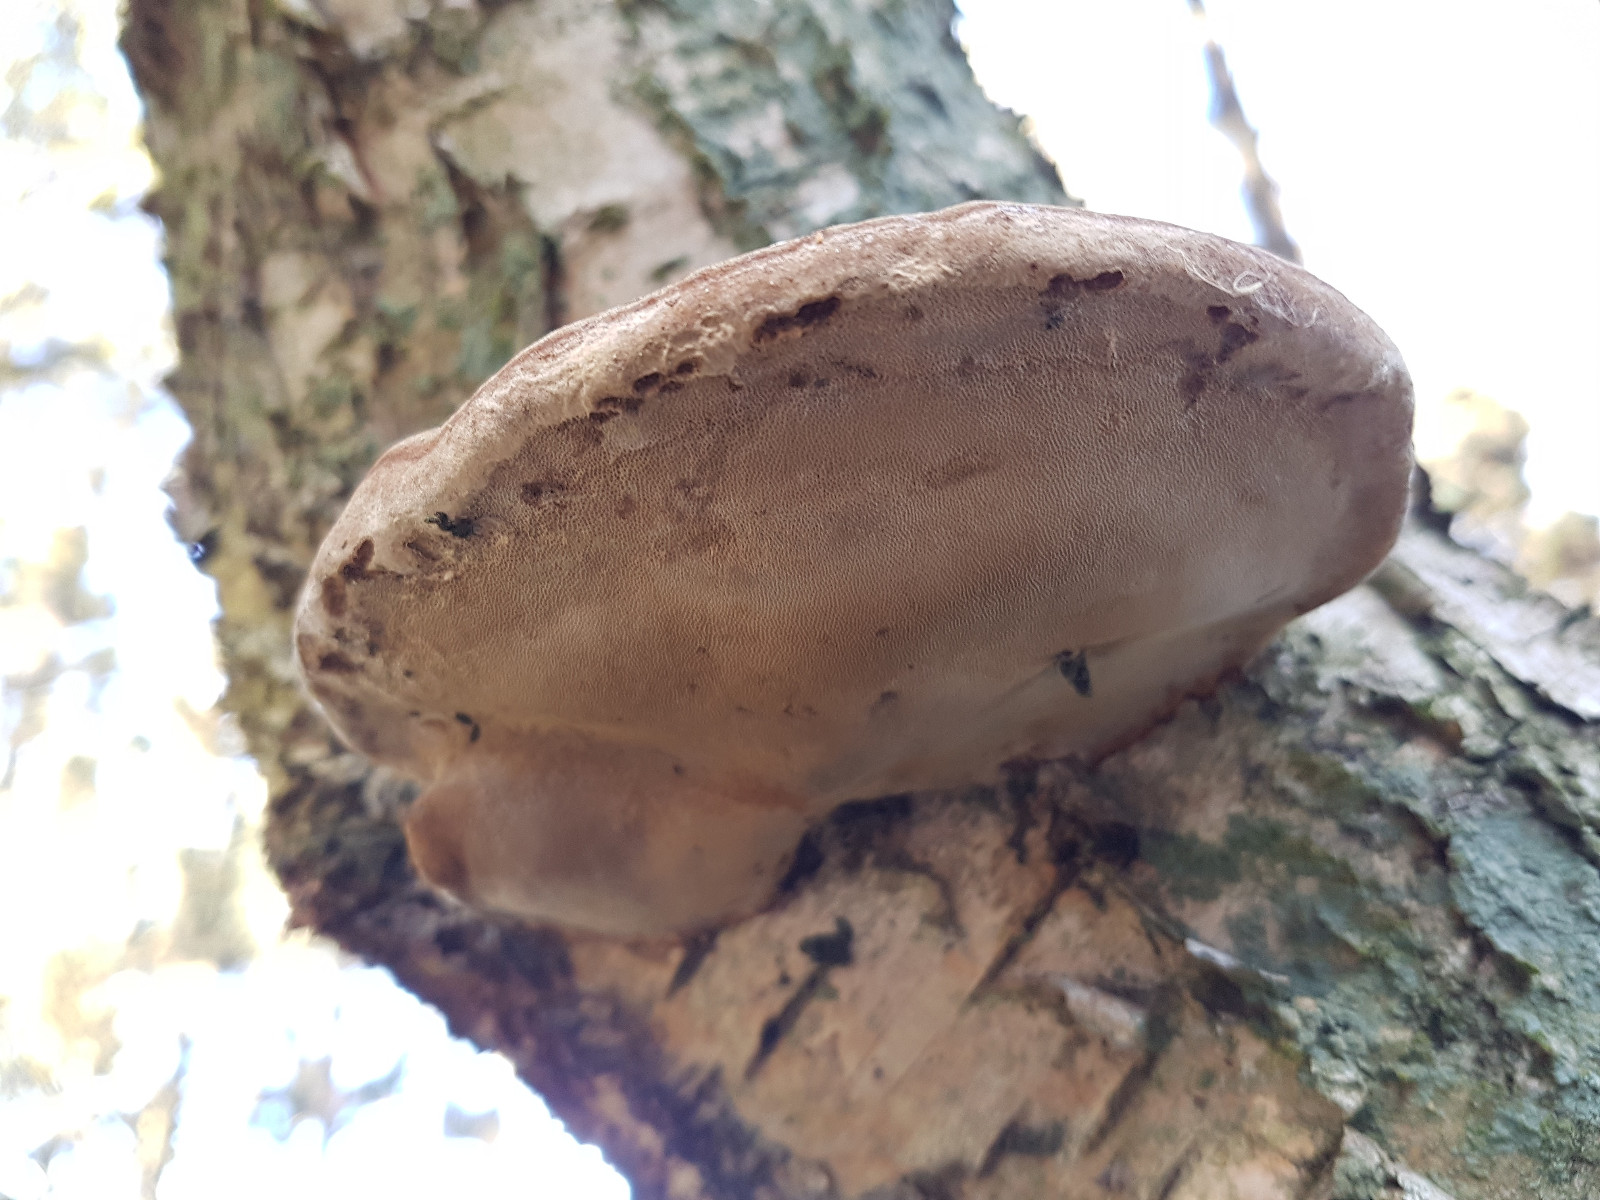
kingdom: Fungi
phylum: Basidiomycota
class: Agaricomycetes
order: Polyporales
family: Polyporaceae
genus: Fomes
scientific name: Fomes fomentarius
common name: tøndersvamp
